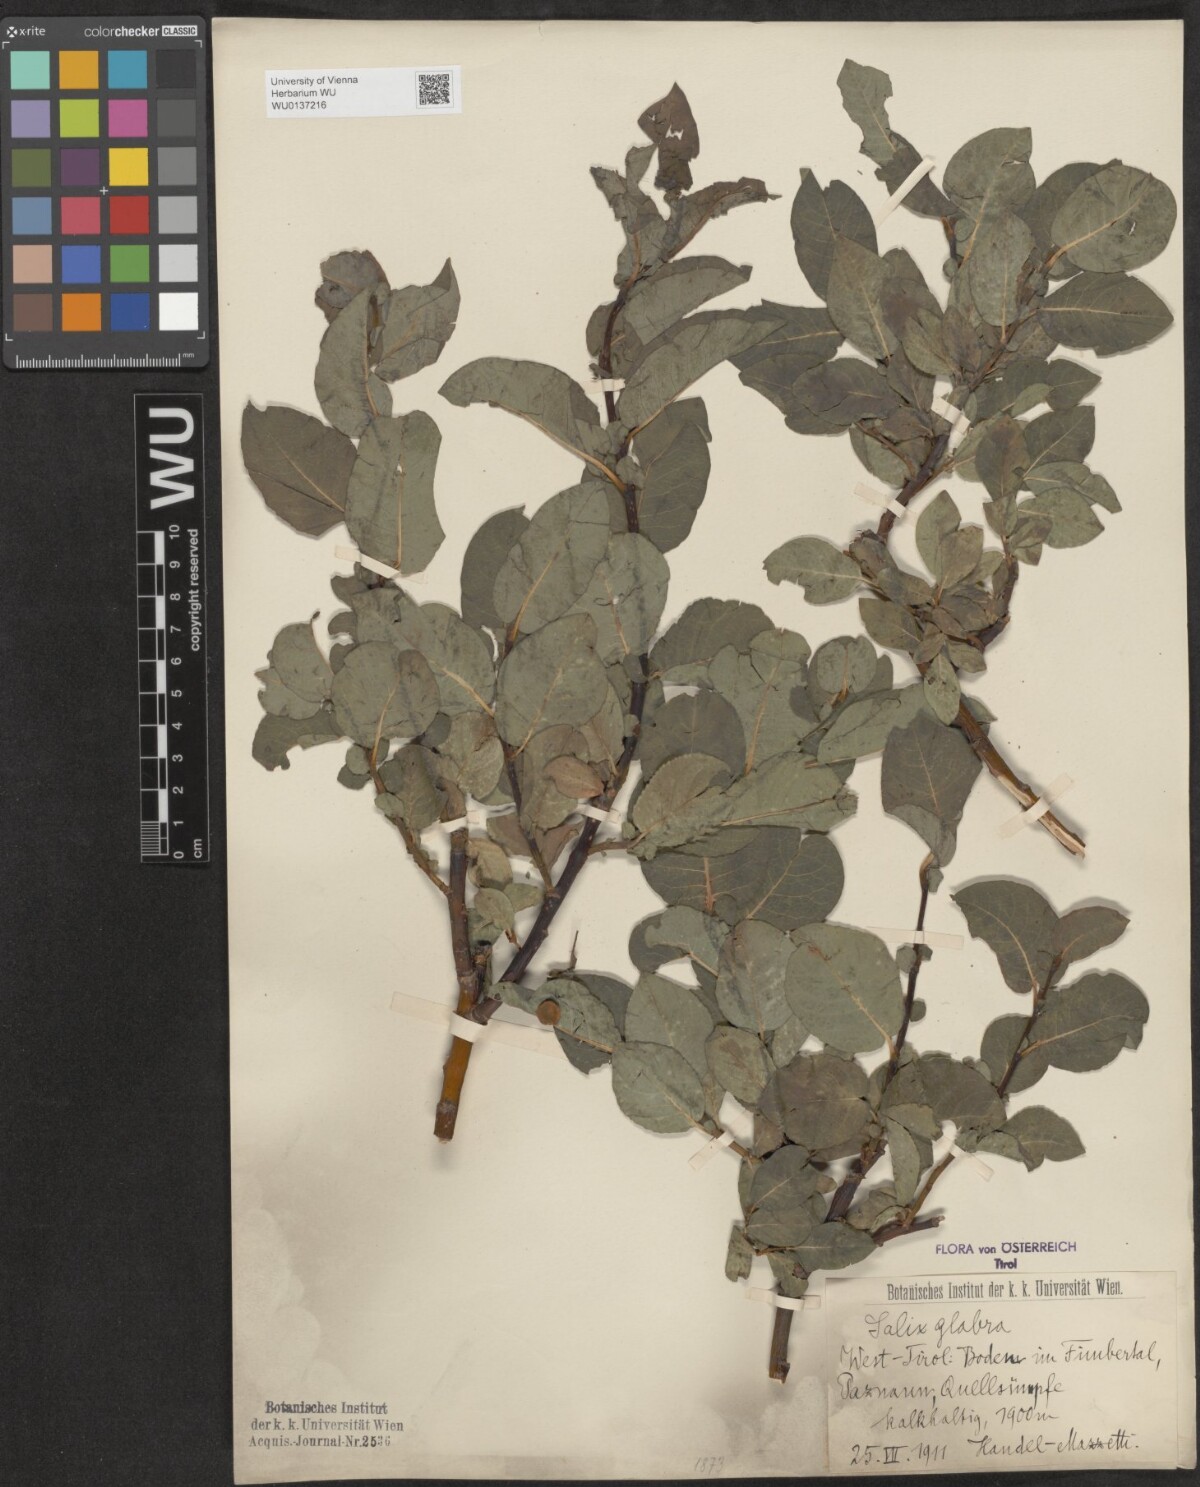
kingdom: Plantae
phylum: Tracheophyta
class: Magnoliopsida
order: Malpighiales
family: Salicaceae
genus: Salix
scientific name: Salix glabra
